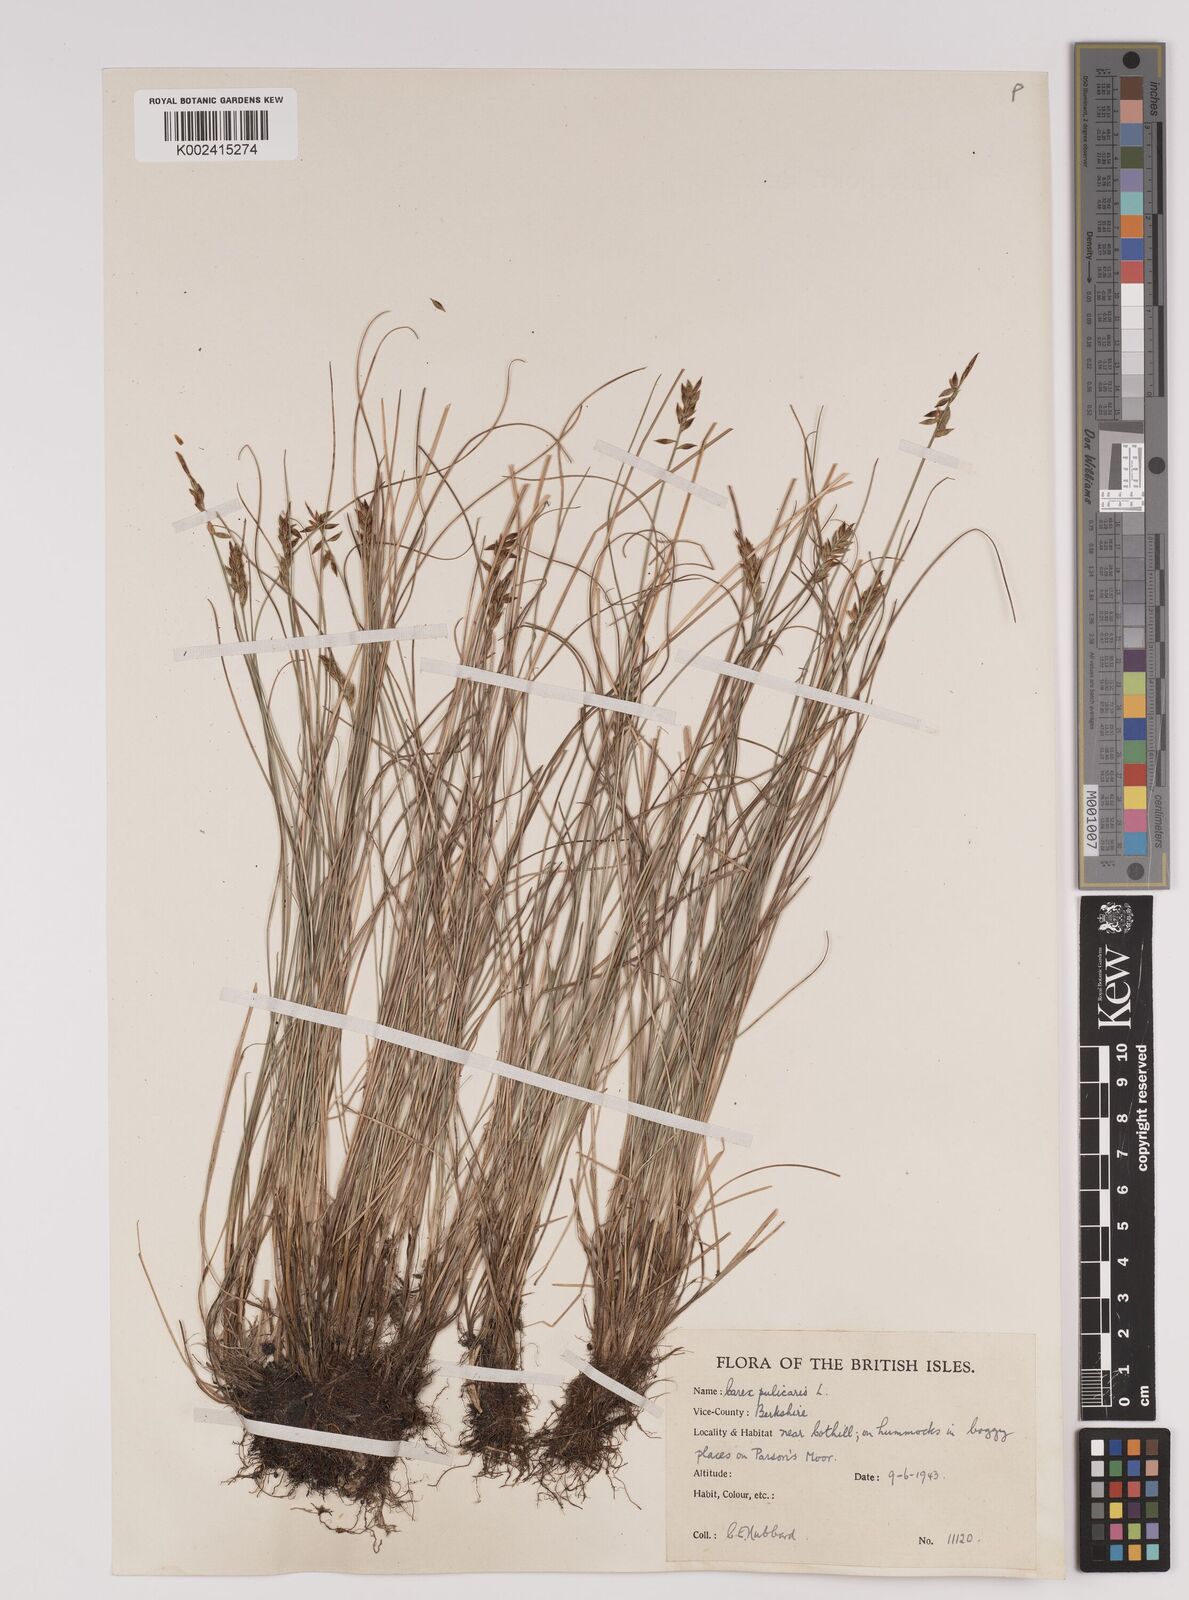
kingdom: Plantae
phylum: Tracheophyta
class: Liliopsida
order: Poales
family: Cyperaceae
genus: Carex
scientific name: Carex pulicaris
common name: Flea sedge
